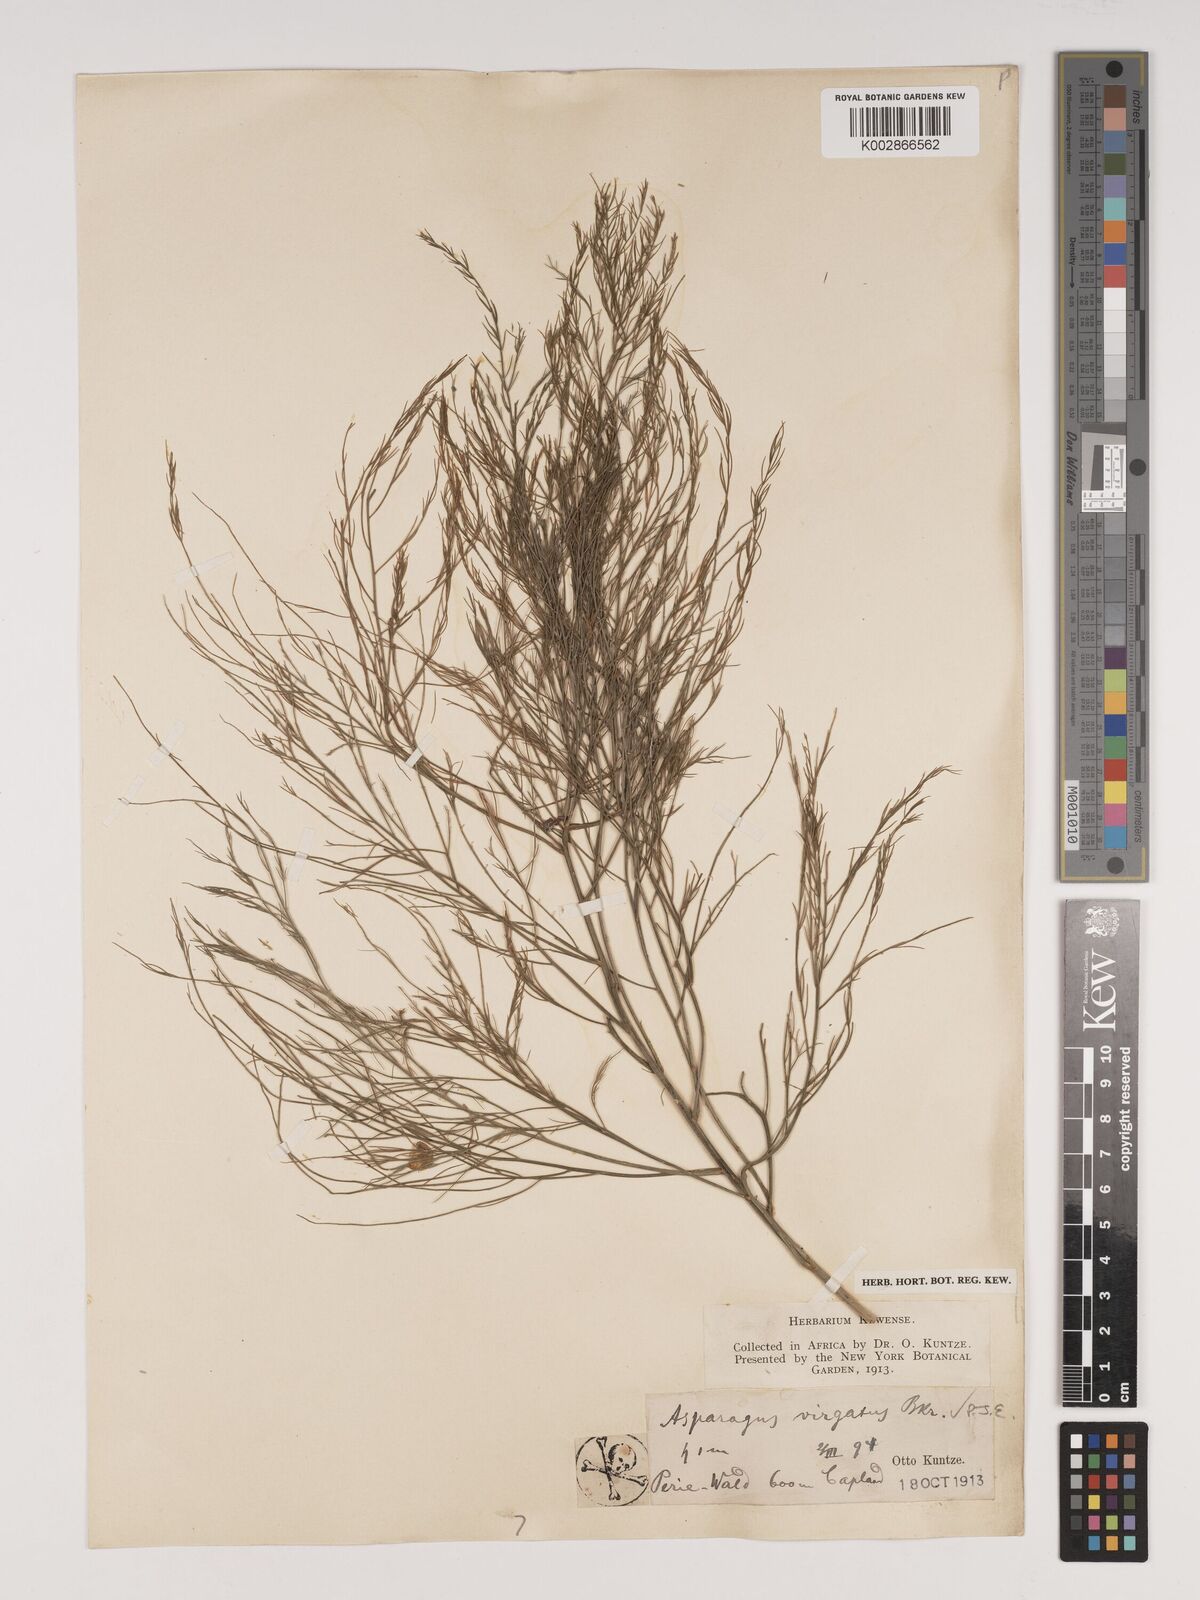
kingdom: Plantae
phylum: Tracheophyta
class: Liliopsida
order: Asparagales
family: Asparagaceae
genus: Asparagus
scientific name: Asparagus virgatus
